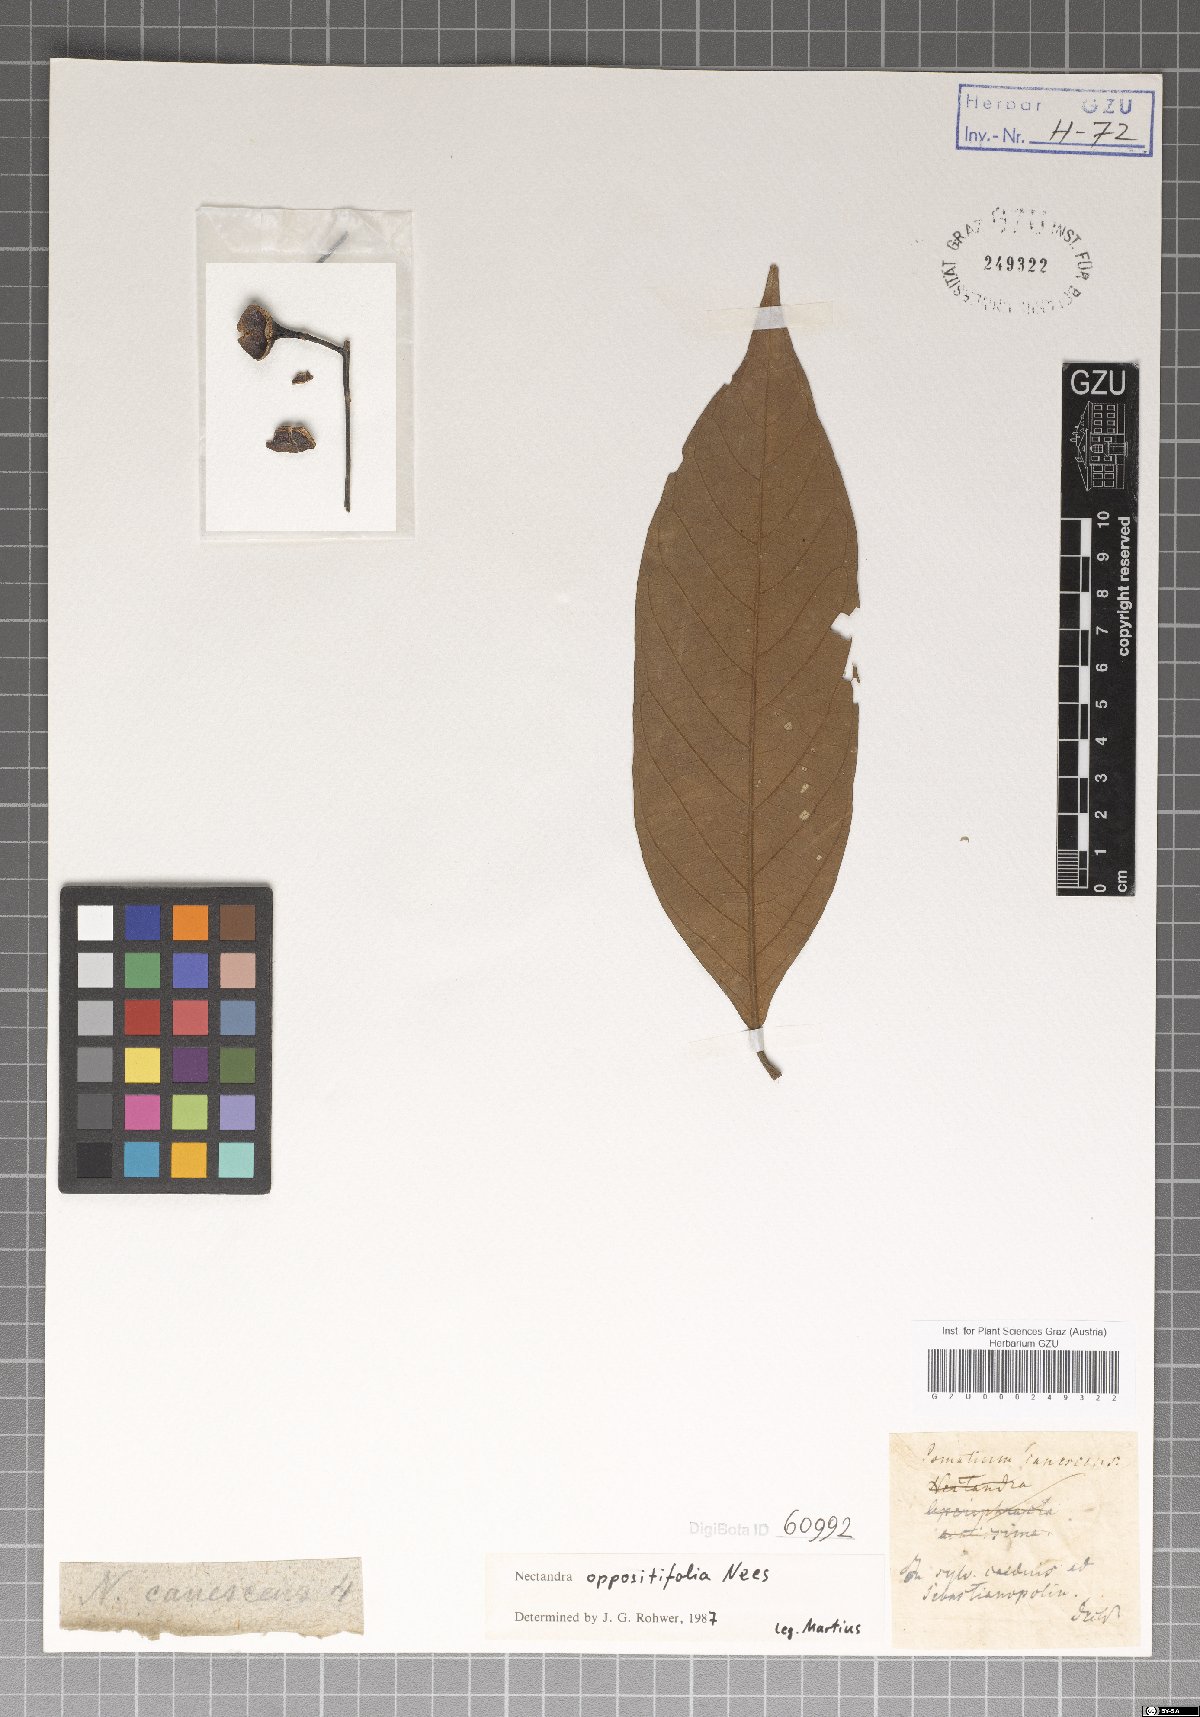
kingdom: Plantae
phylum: Tracheophyta
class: Magnoliopsida
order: Laurales
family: Lauraceae
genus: Nectandra
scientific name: Nectandra oppositifolia
